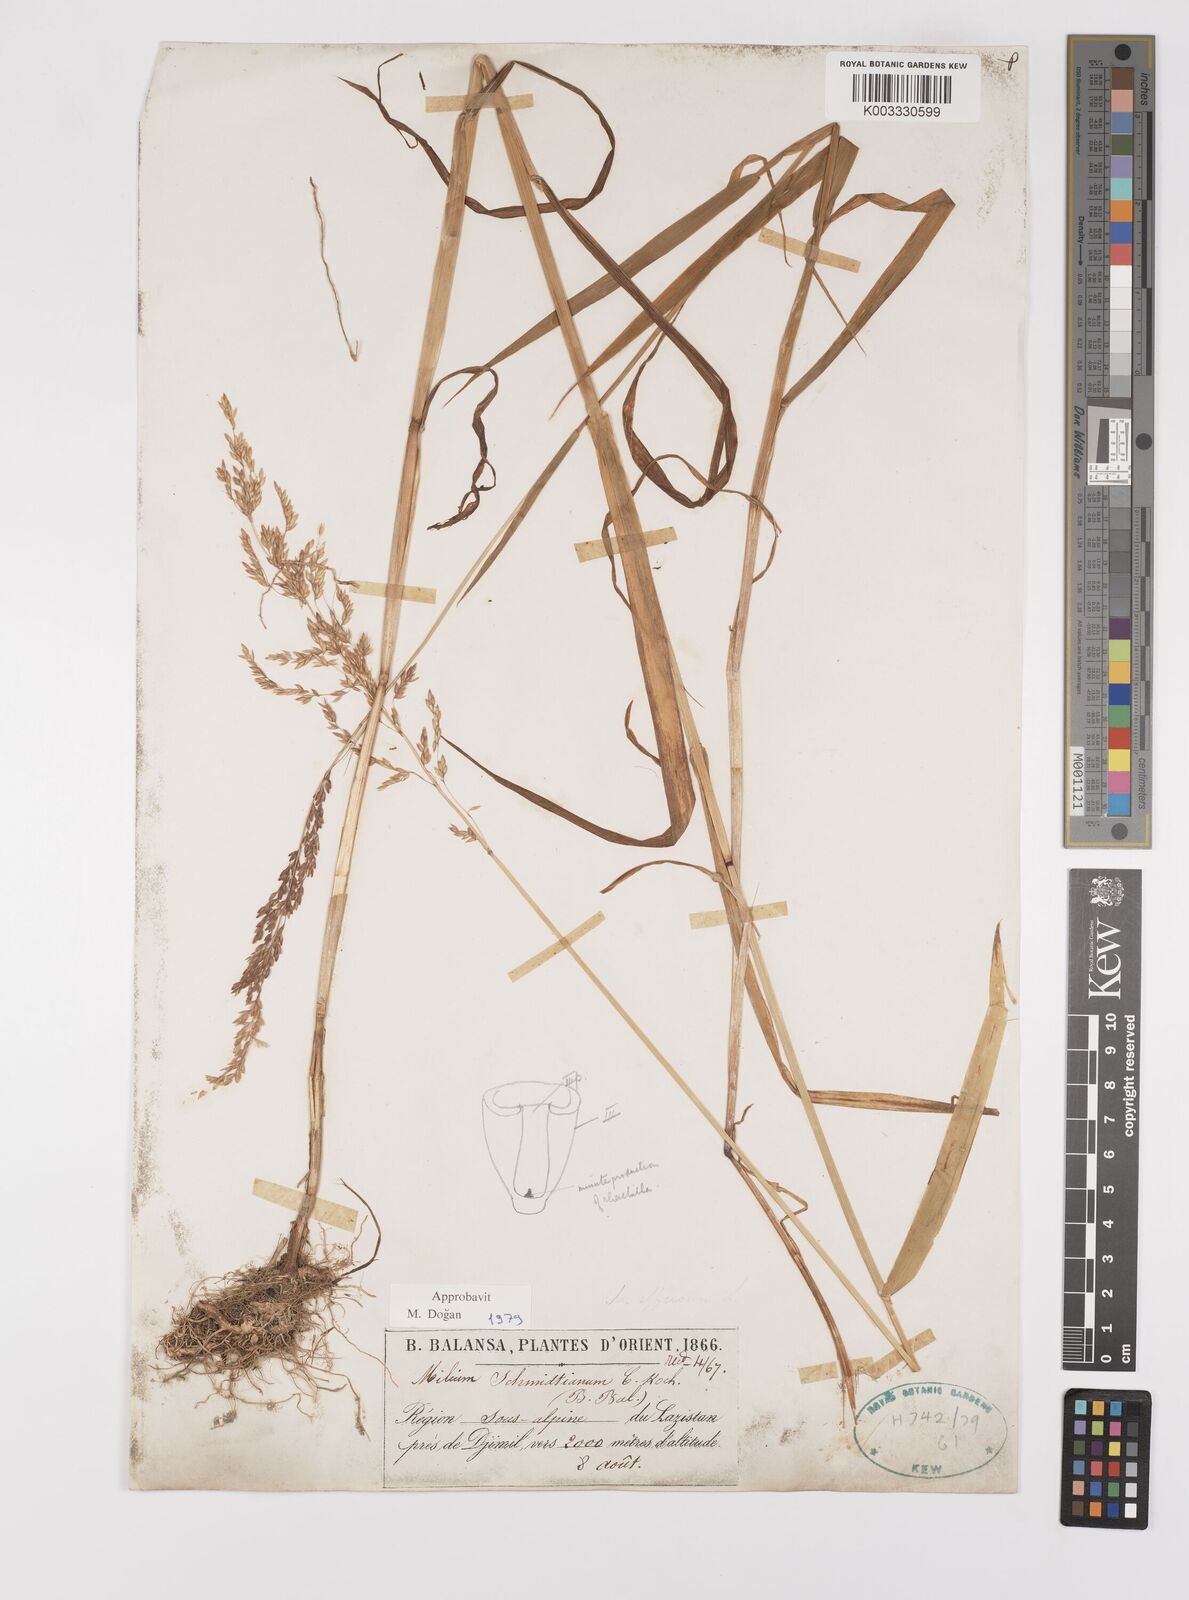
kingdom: Plantae
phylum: Tracheophyta
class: Liliopsida
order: Poales
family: Poaceae
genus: Milium
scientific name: Milium schmidtianum
